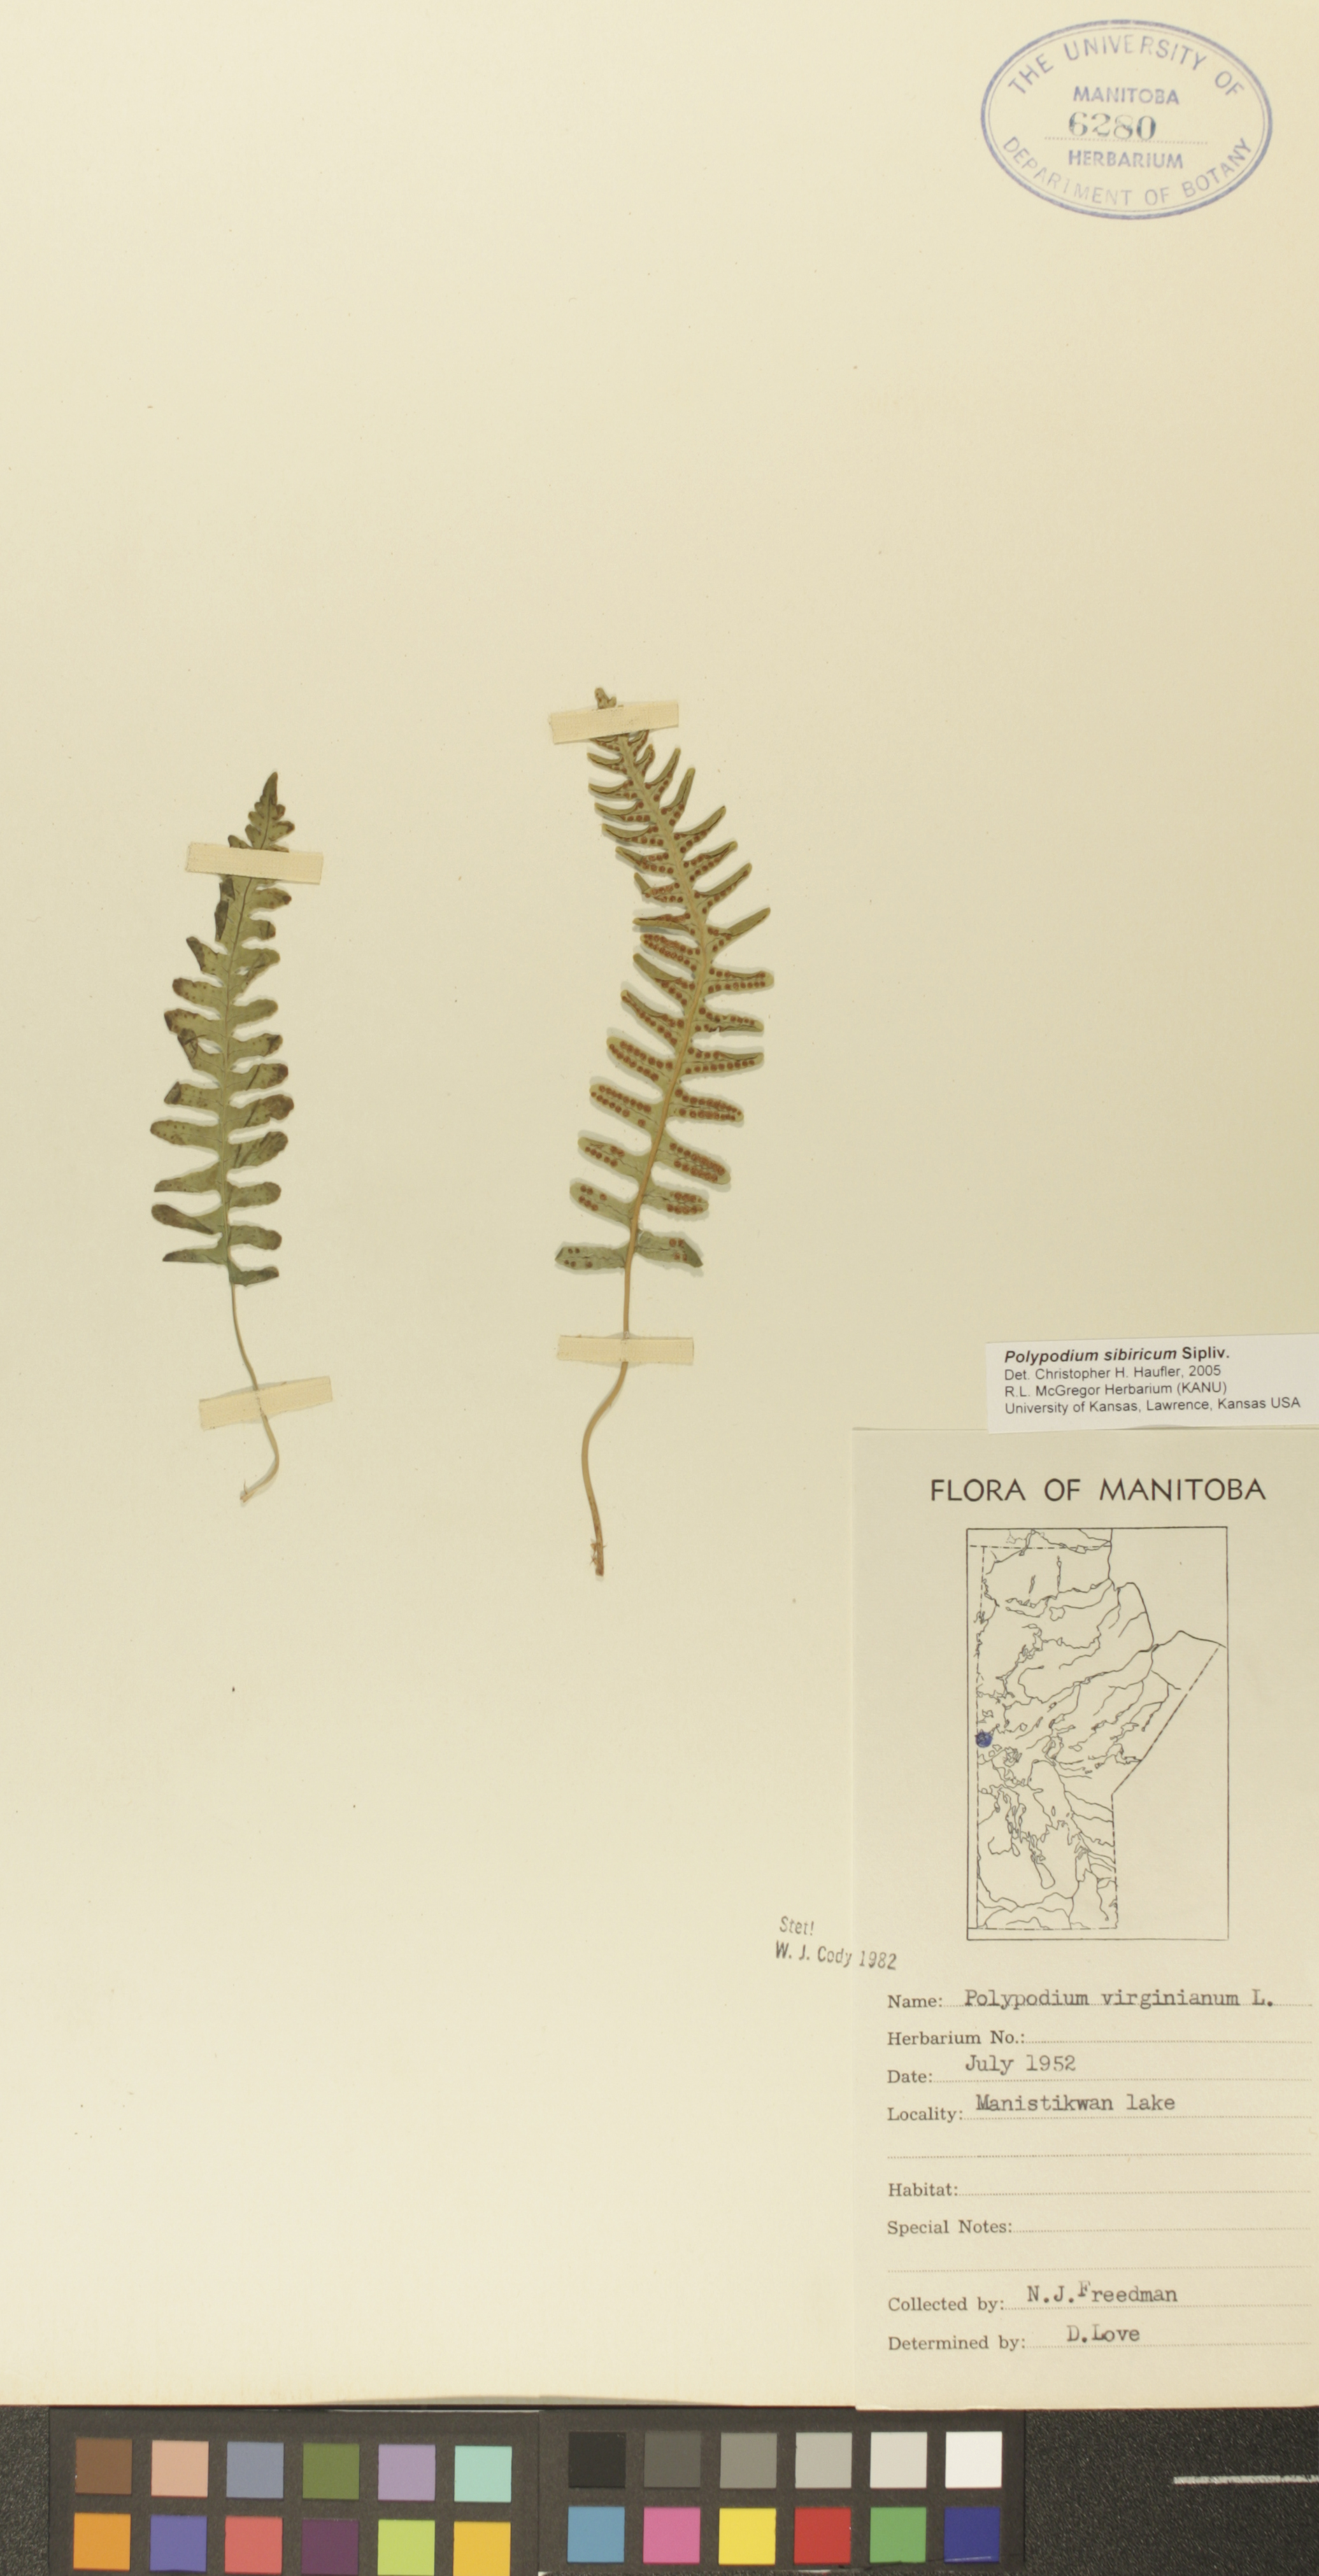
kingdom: Plantae
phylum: Tracheophyta
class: Polypodiopsida
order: Polypodiales
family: Polypodiaceae
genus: Polypodium
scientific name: Polypodium sibiricum
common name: Siberian polypody
